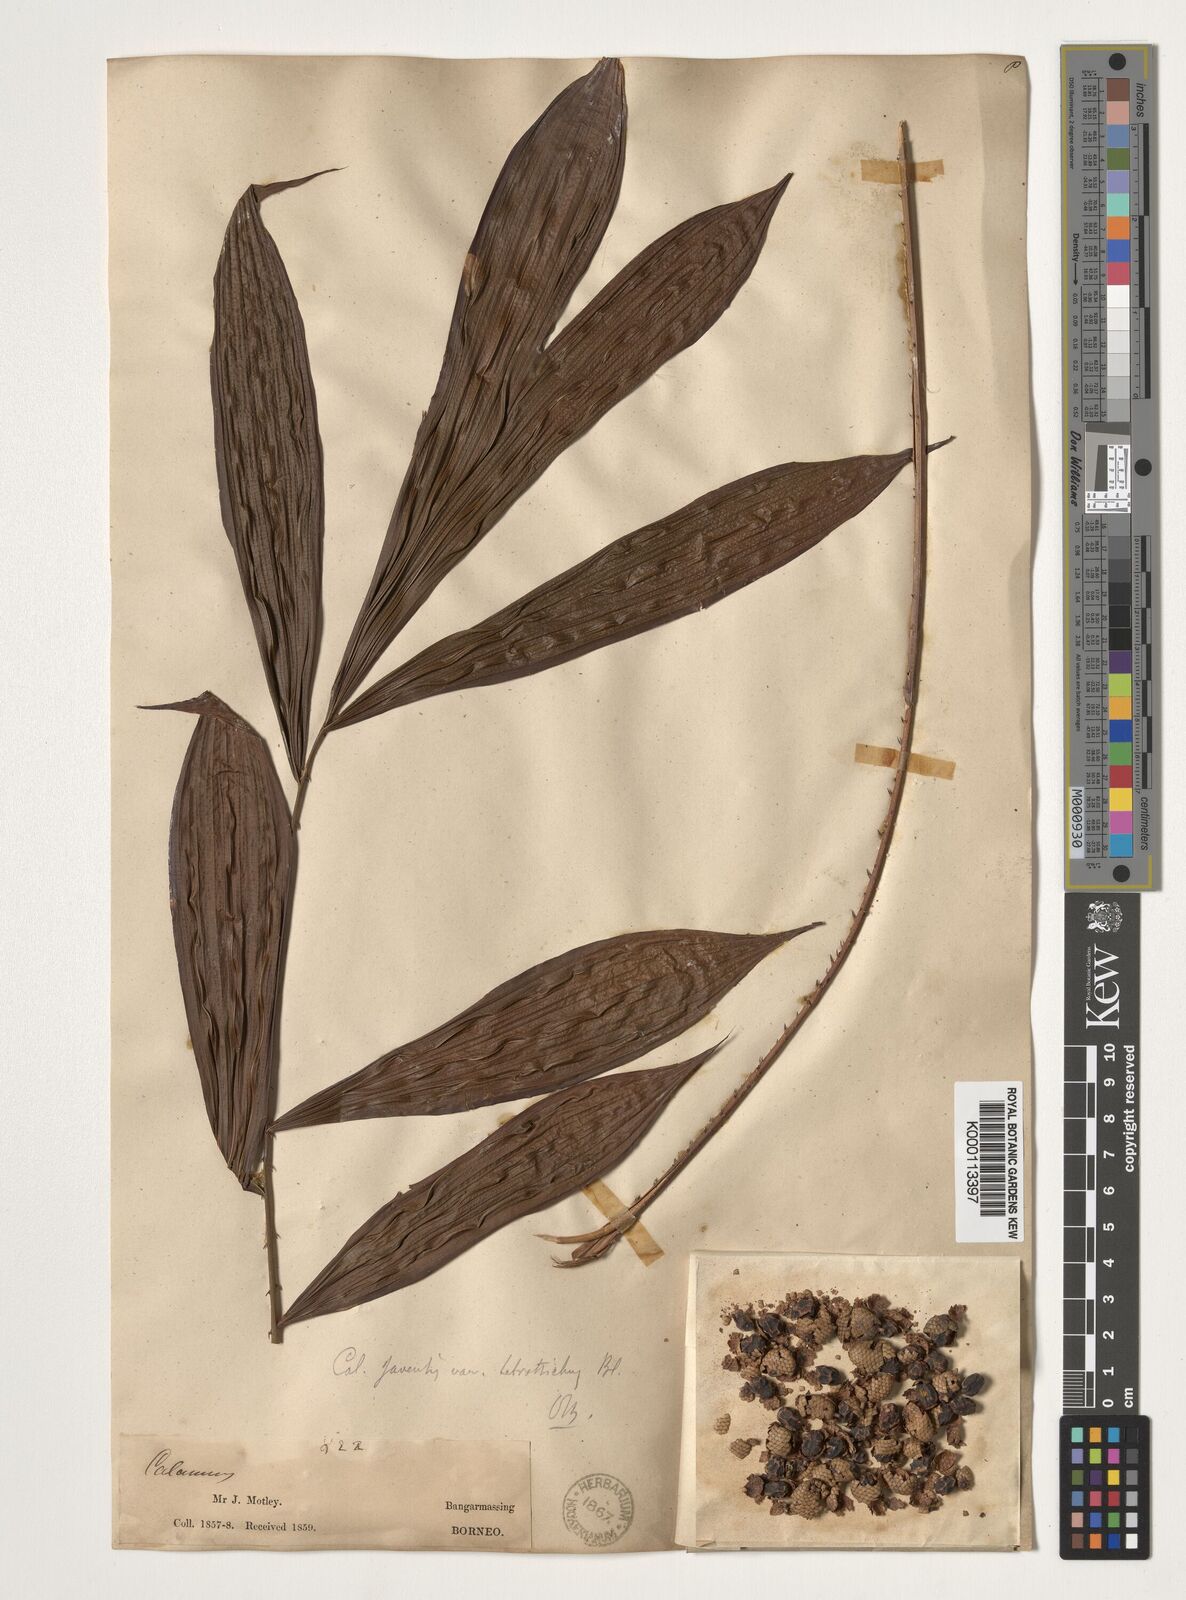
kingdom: Plantae
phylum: Tracheophyta
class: Liliopsida
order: Arecales
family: Arecaceae
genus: Calamus
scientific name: Calamus javensis
